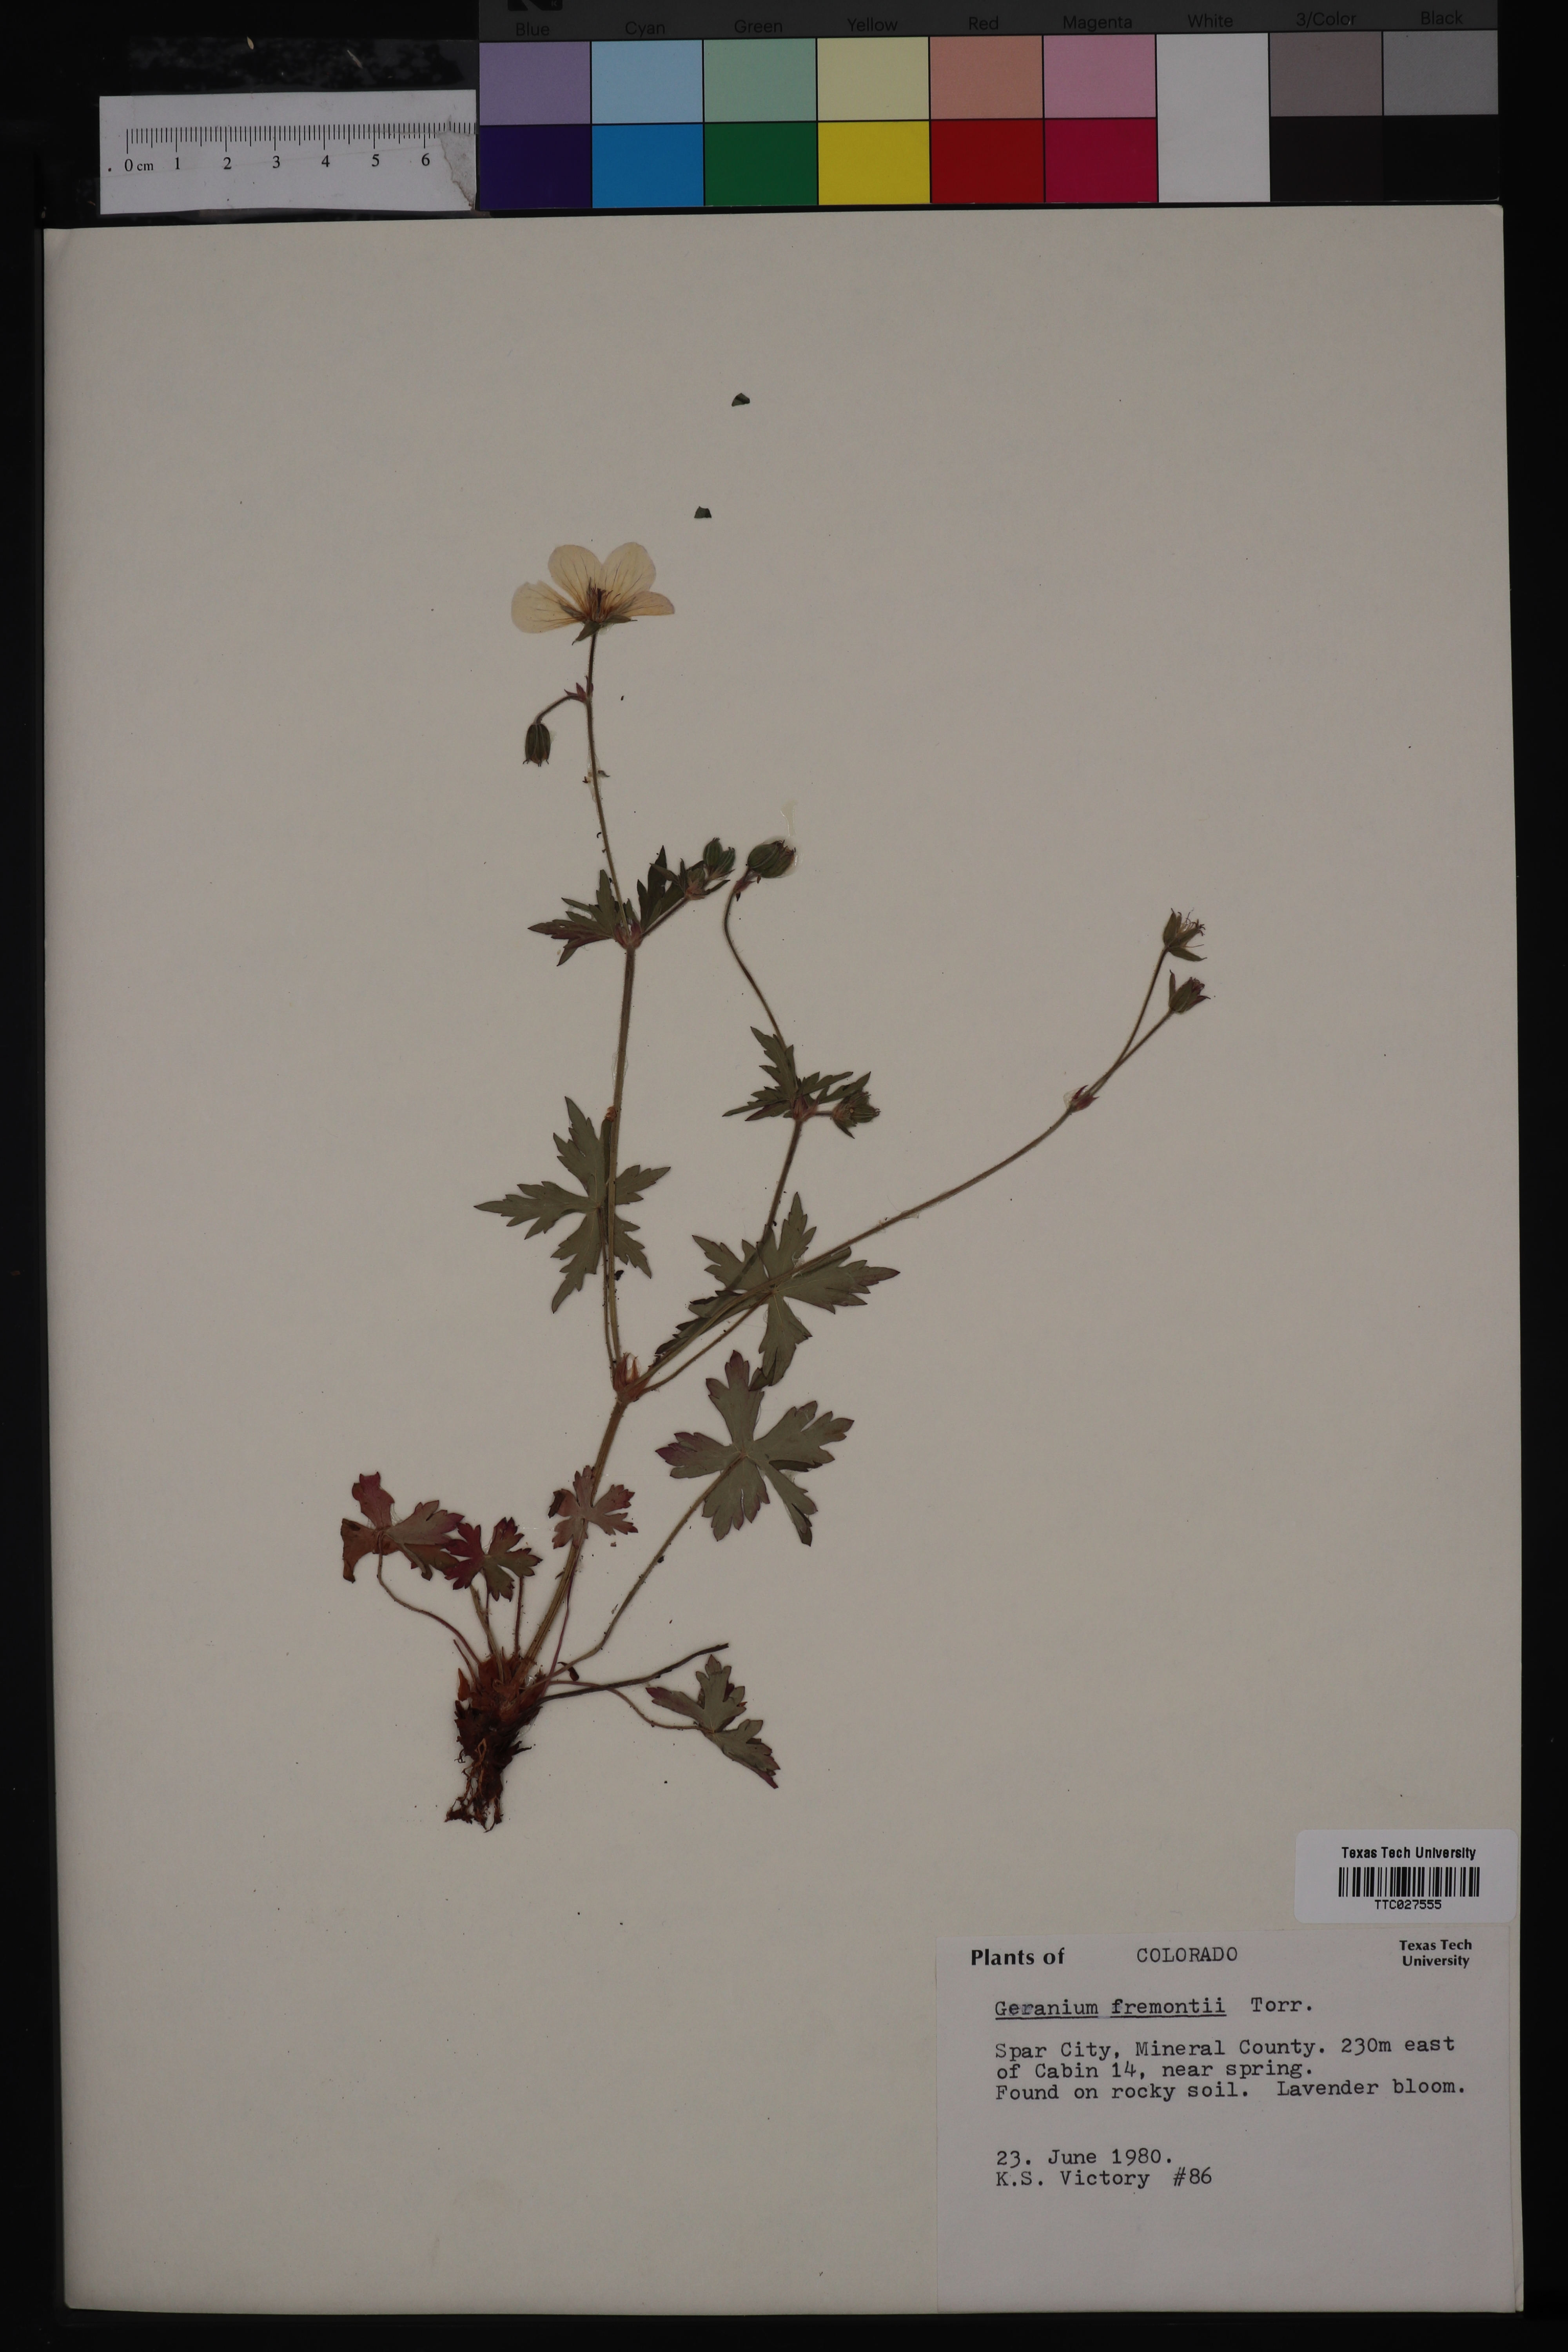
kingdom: Plantae
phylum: Tracheophyta
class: Magnoliopsida
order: Geraniales
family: Geraniaceae
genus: Geranium
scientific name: Geranium caespitosum
